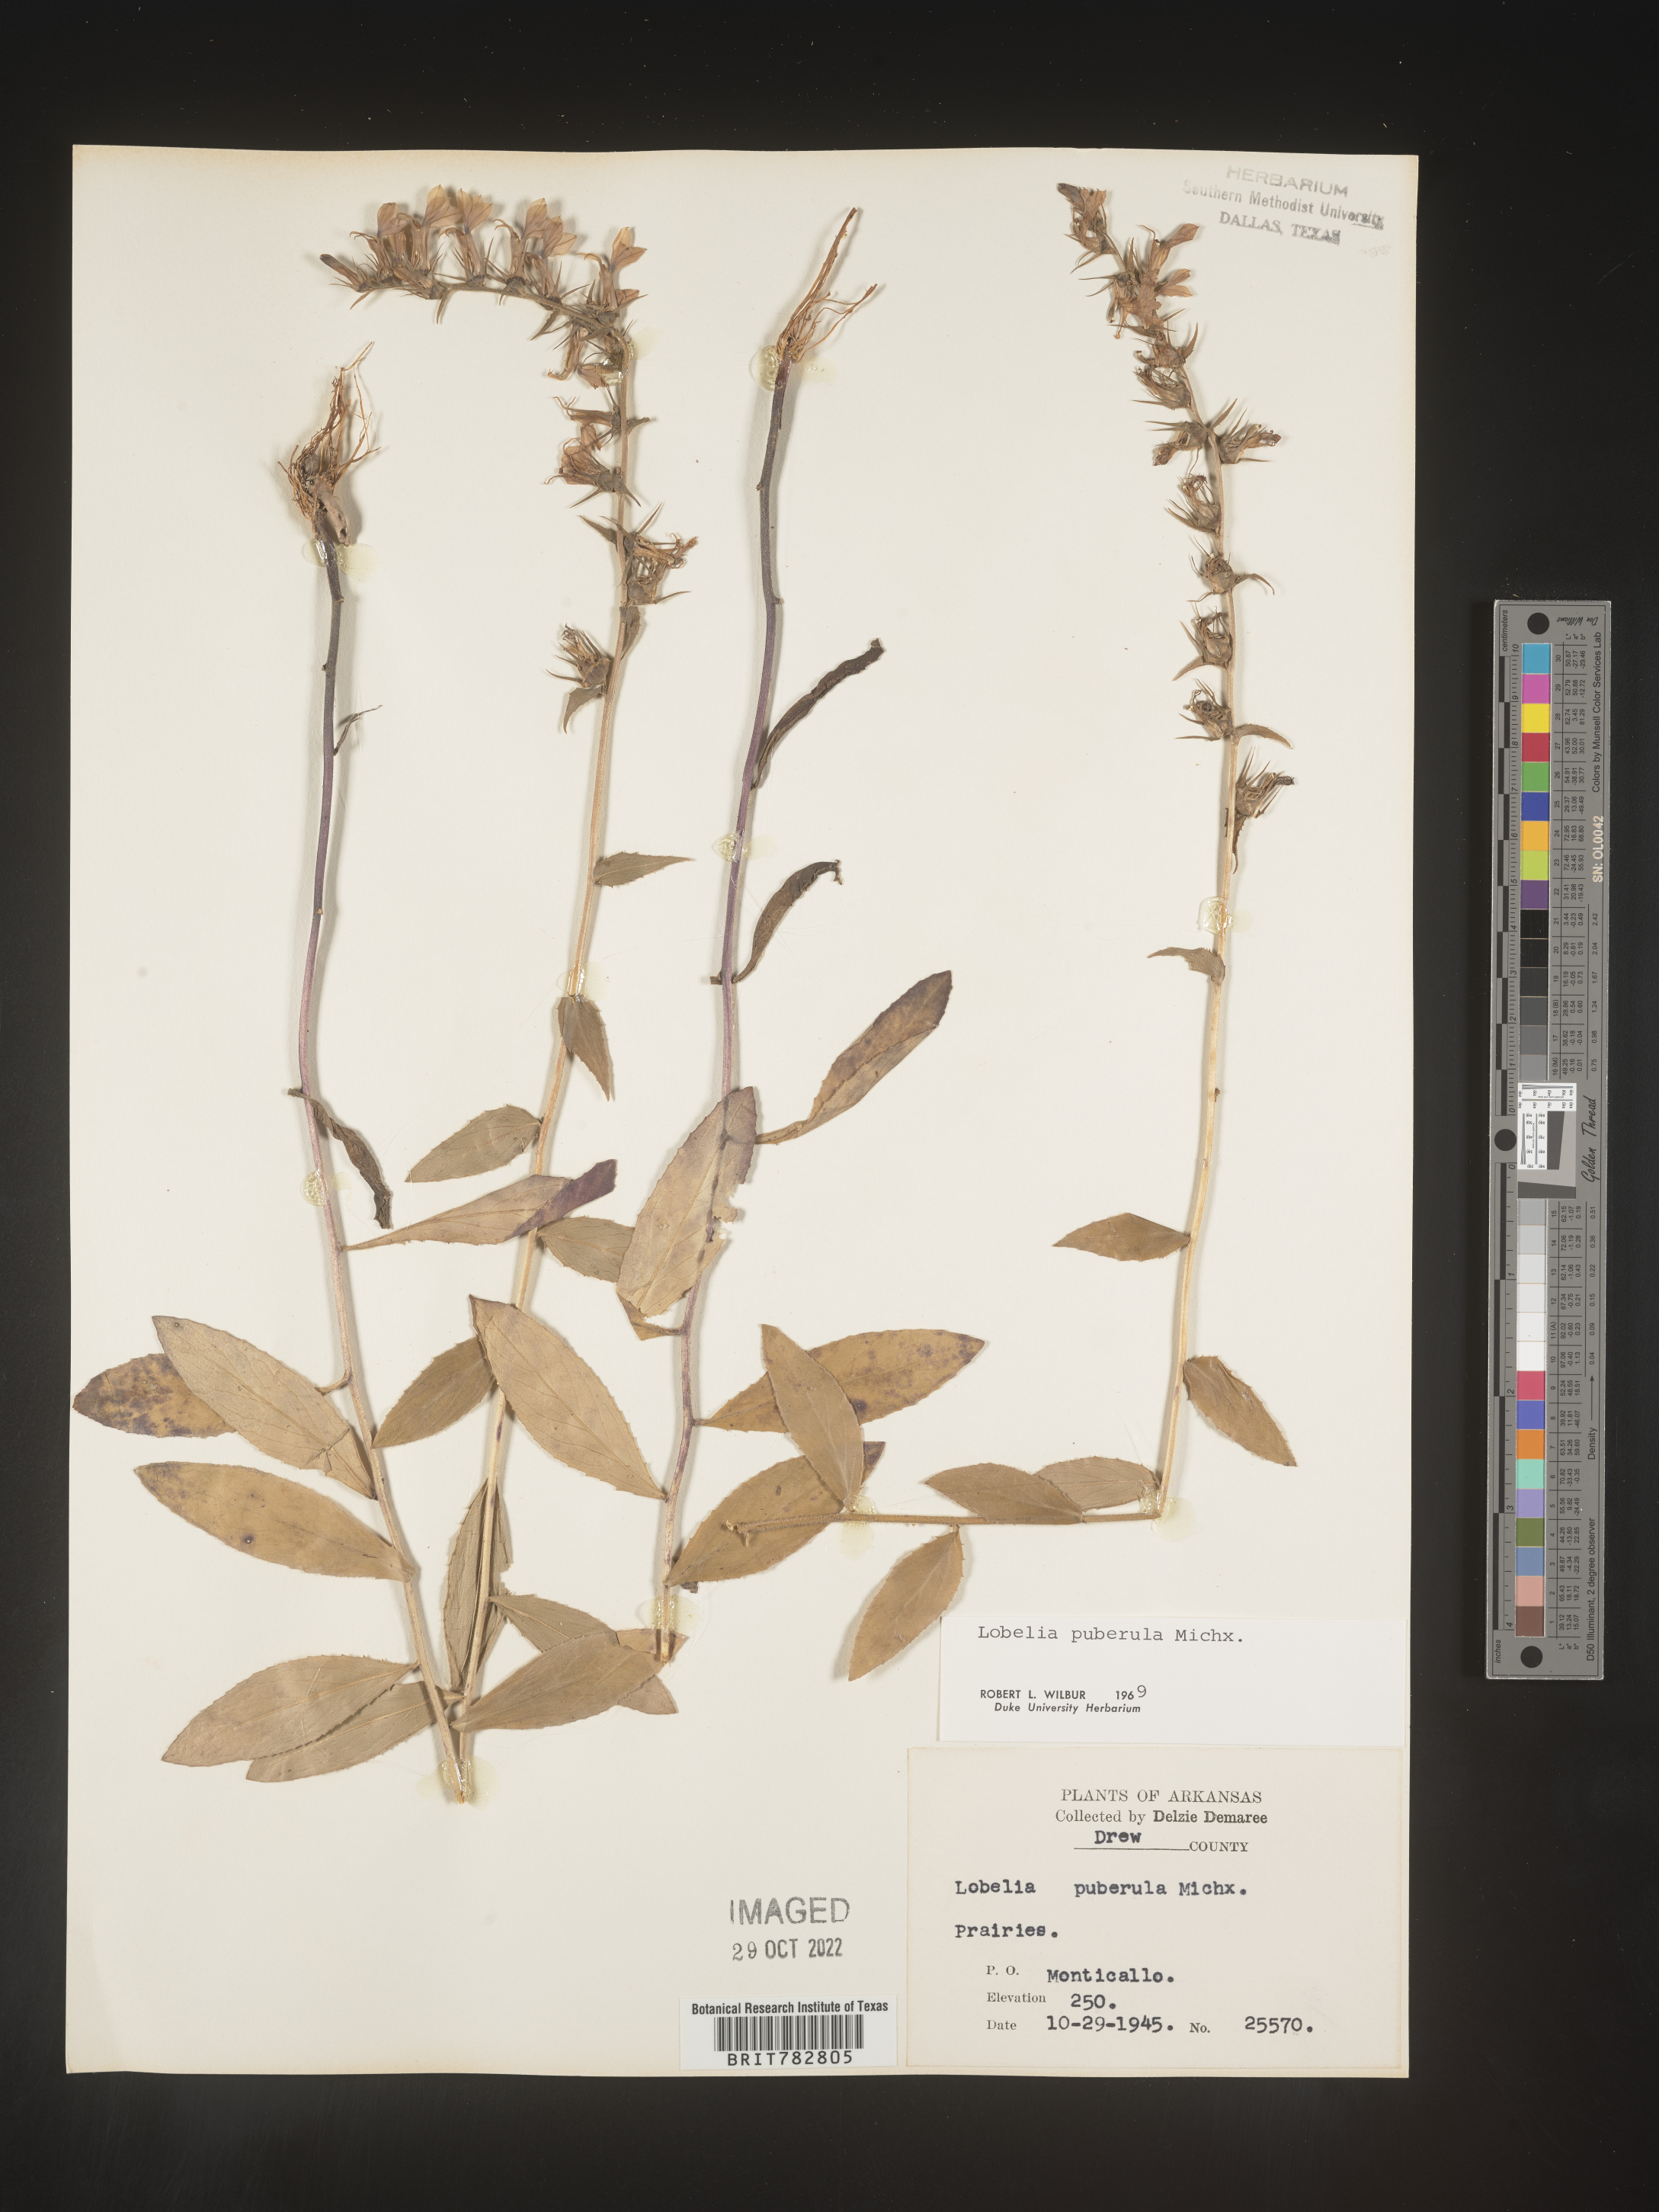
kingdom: Plantae
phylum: Tracheophyta
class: Magnoliopsida
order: Asterales
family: Campanulaceae
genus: Lobelia
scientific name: Lobelia puberula
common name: Purple dewdrop
